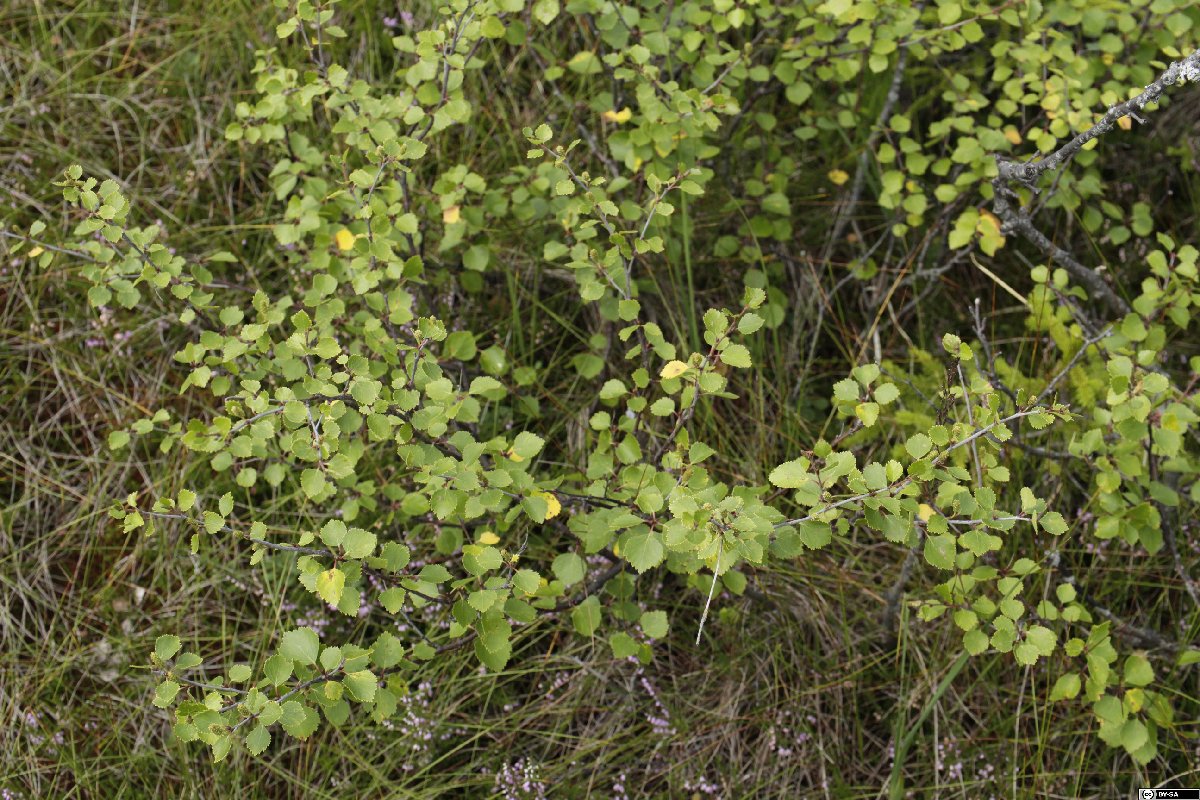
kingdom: Plantae
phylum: Tracheophyta
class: Magnoliopsida
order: Fagales
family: Betulaceae
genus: Betula
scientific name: Betula humilis
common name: Shrubby birch
